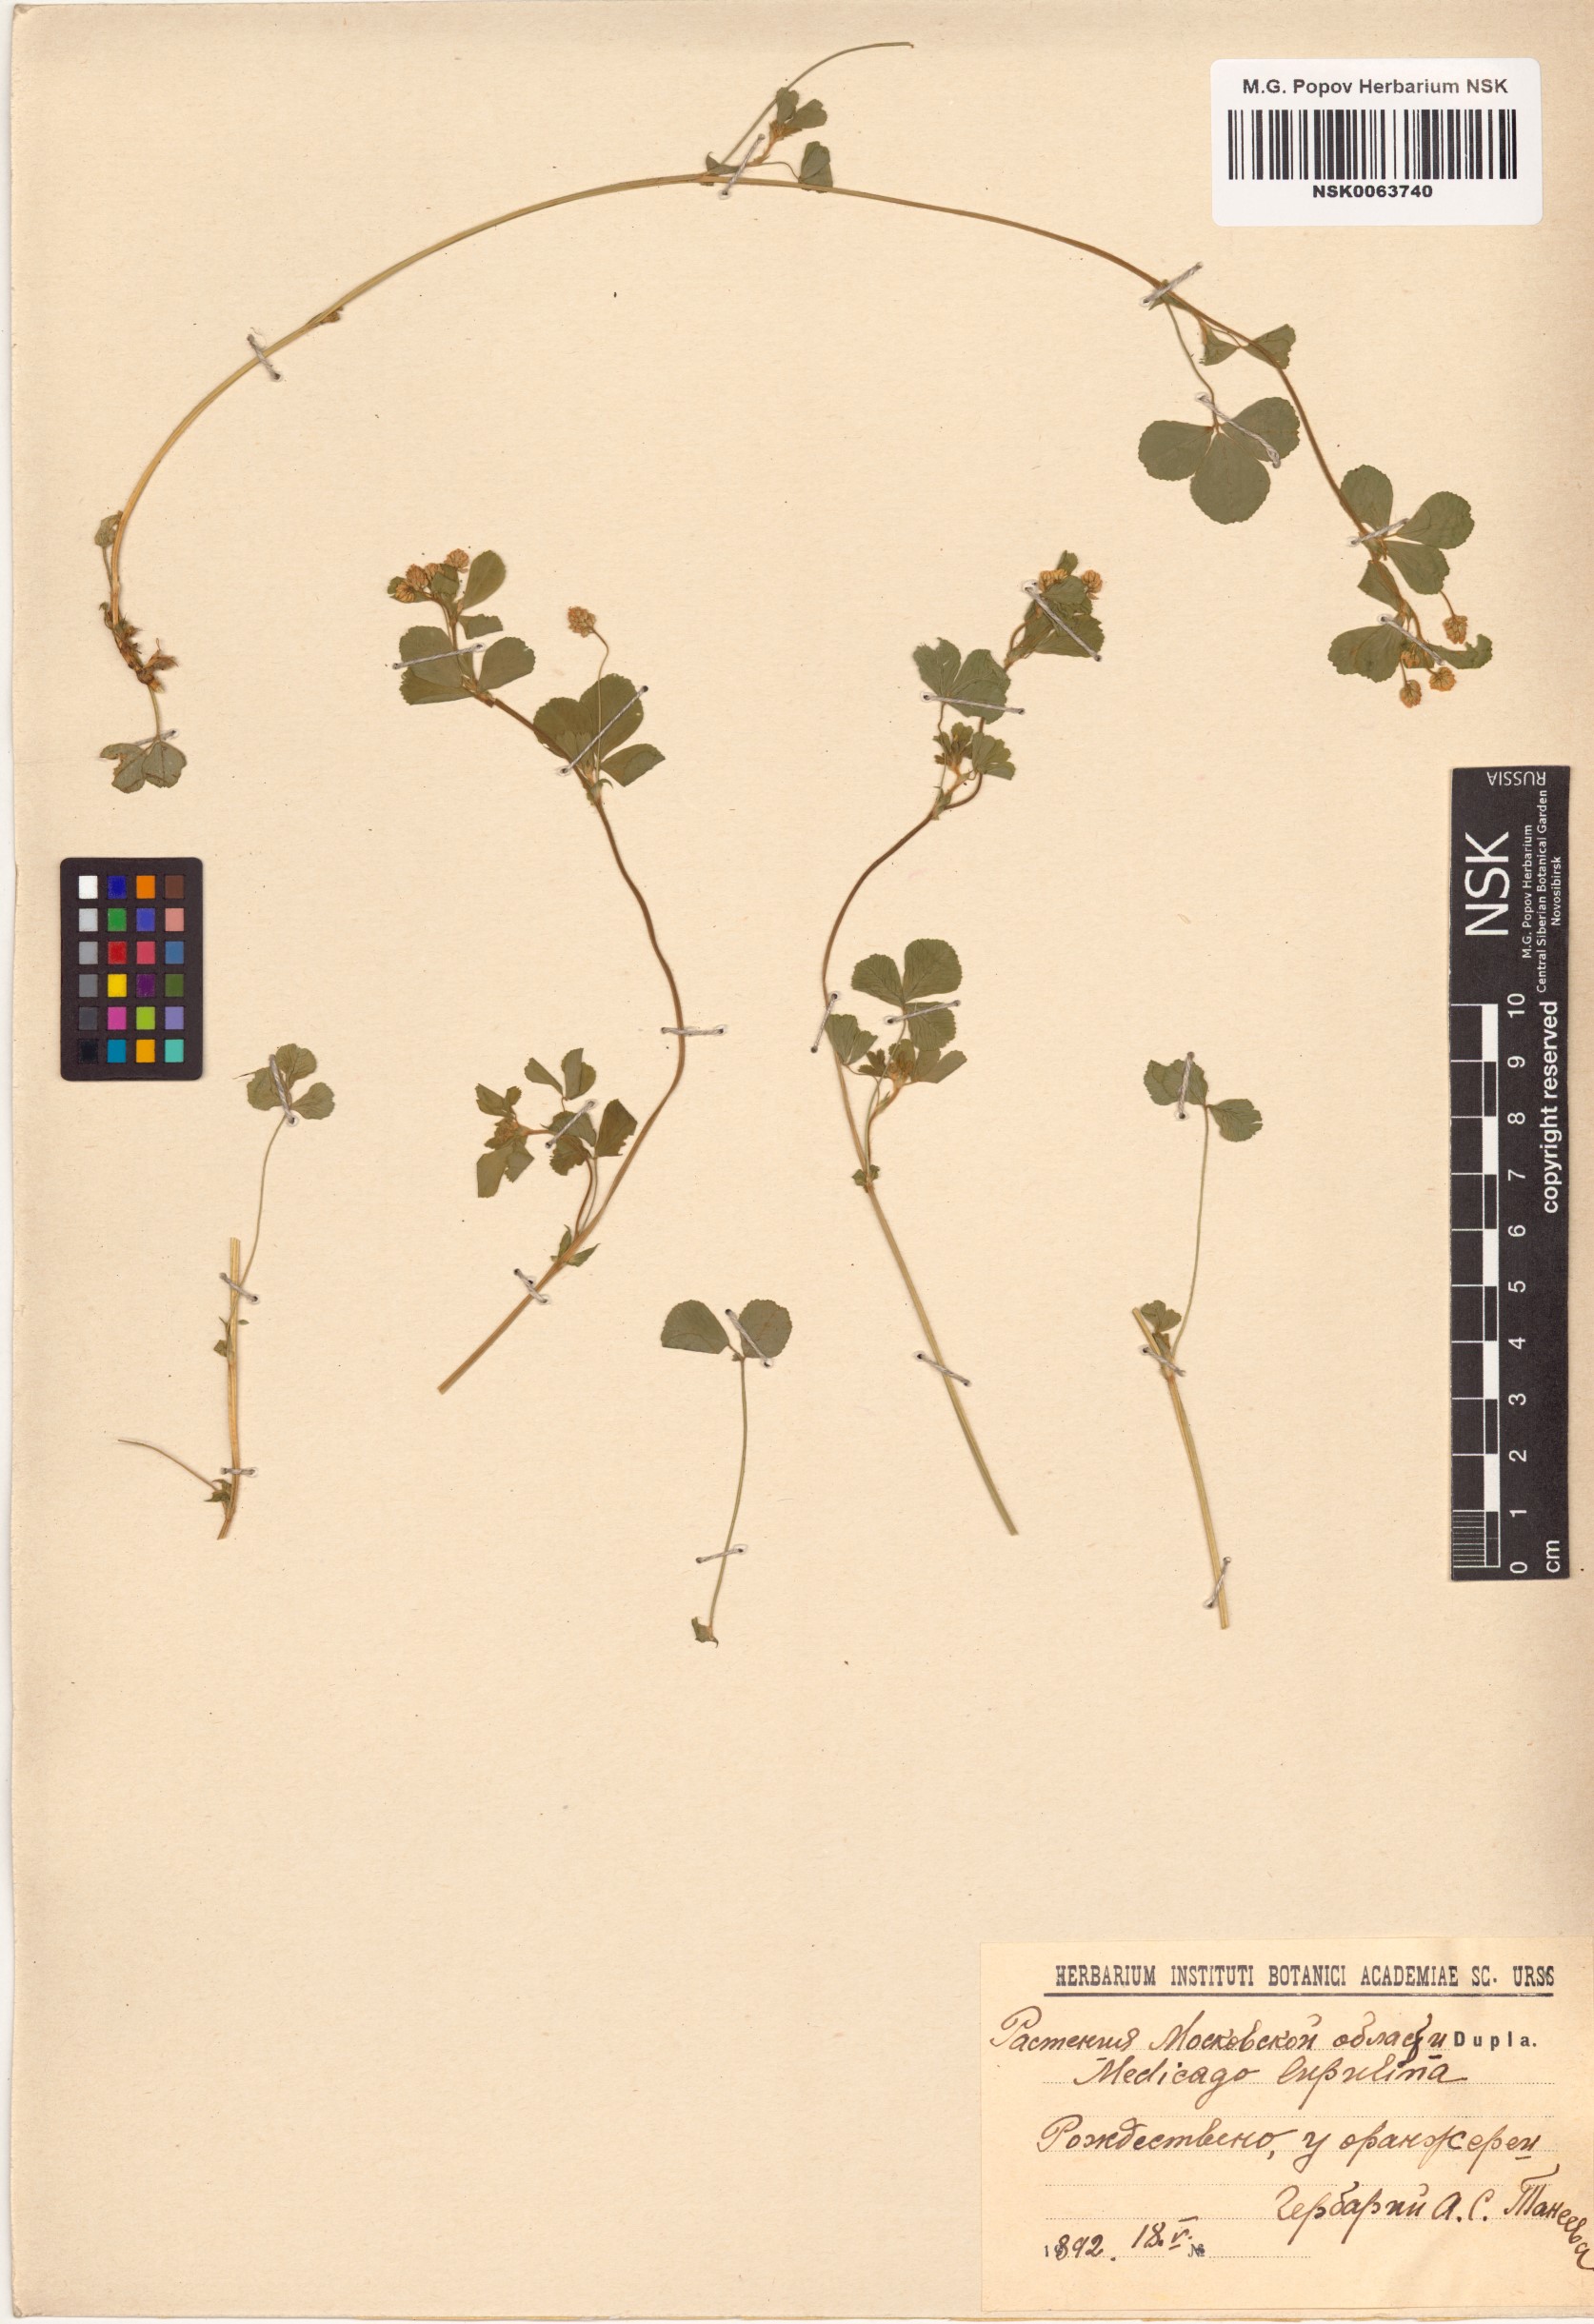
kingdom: Plantae
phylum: Tracheophyta
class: Magnoliopsida
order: Fabales
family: Fabaceae
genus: Medicago
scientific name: Medicago lupulina
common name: Black medick
